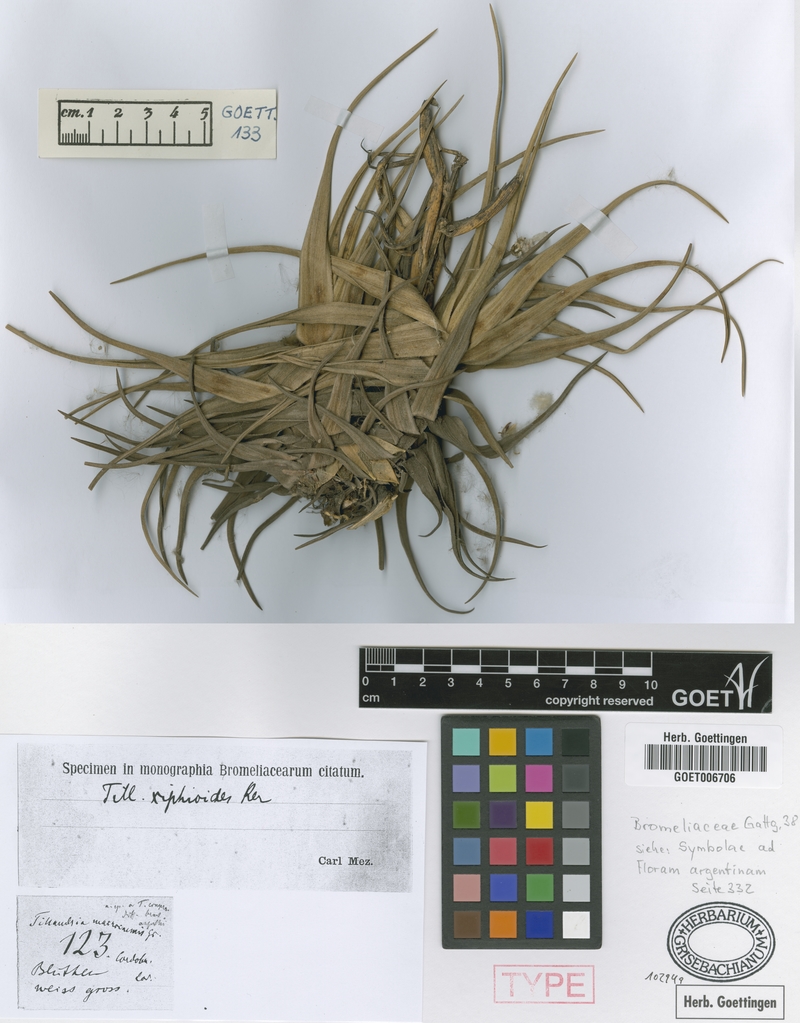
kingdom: Plantae
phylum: Tracheophyta
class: Liliopsida
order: Poales
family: Bromeliaceae
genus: Tillandsia
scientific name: Tillandsia xiphioides
